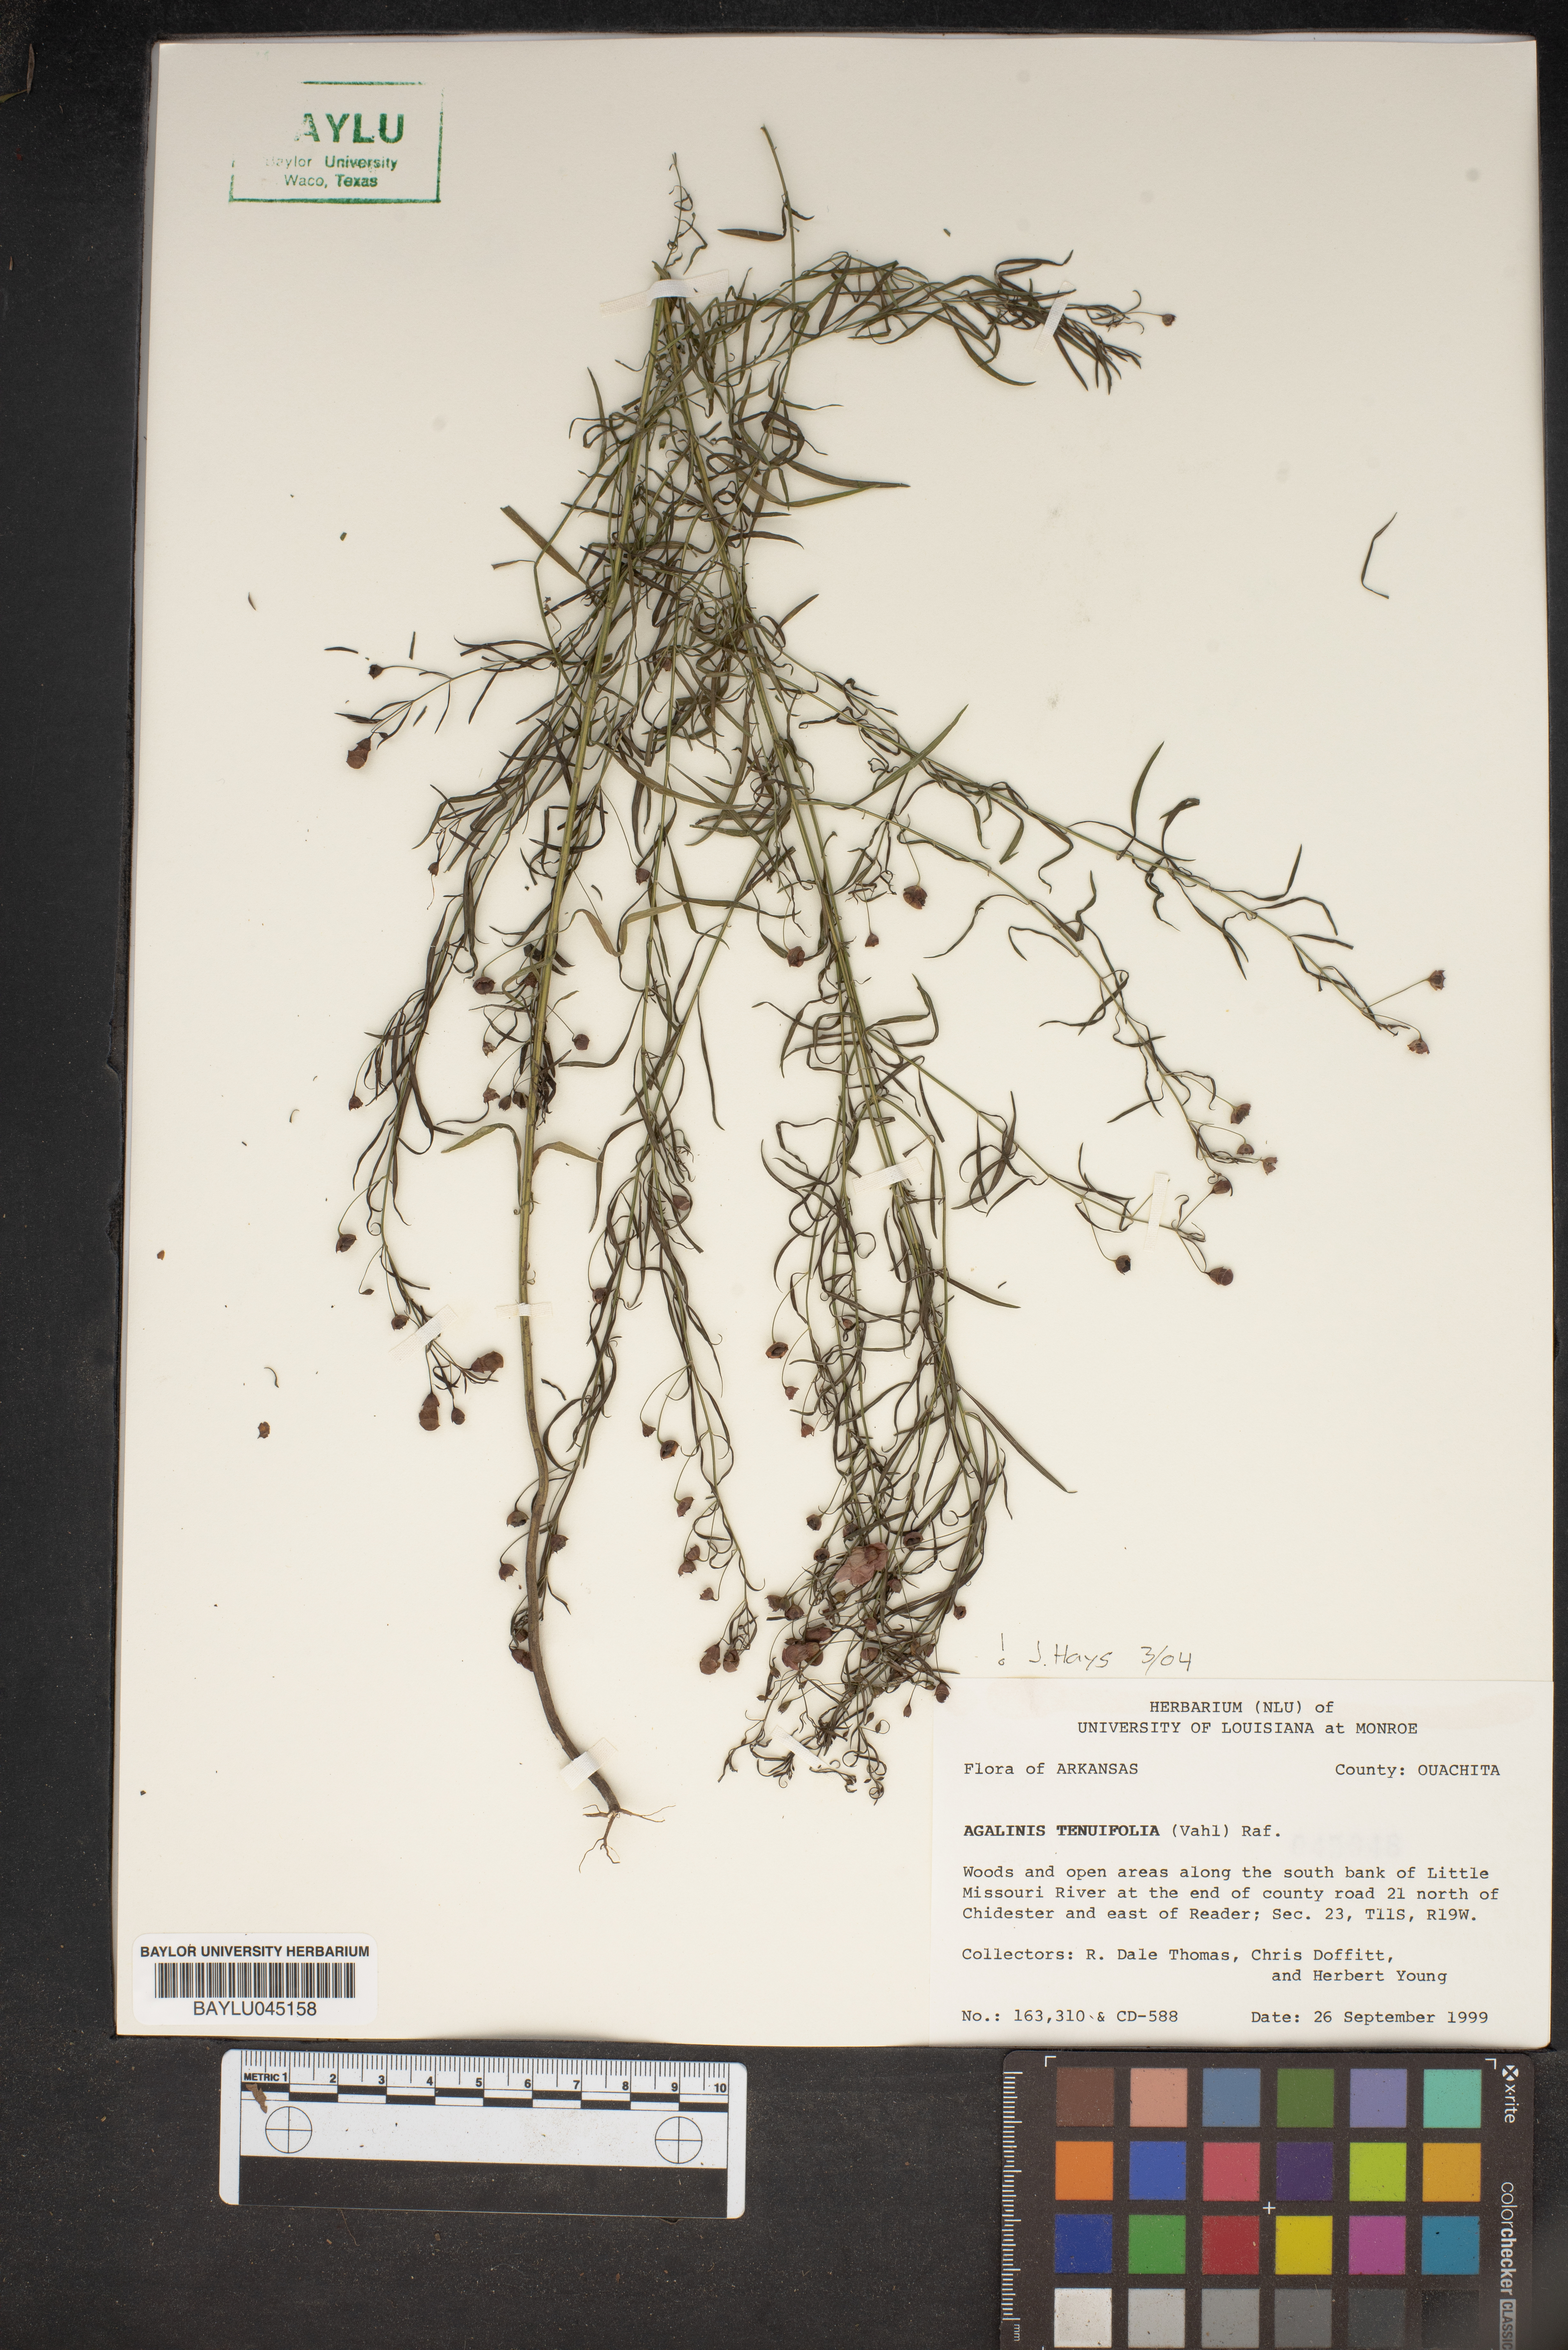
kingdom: Plantae
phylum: Tracheophyta
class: Magnoliopsida
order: Lamiales
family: Orobanchaceae
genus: Agalinis
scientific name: Agalinis tenuifolia
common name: Slender agalinis
